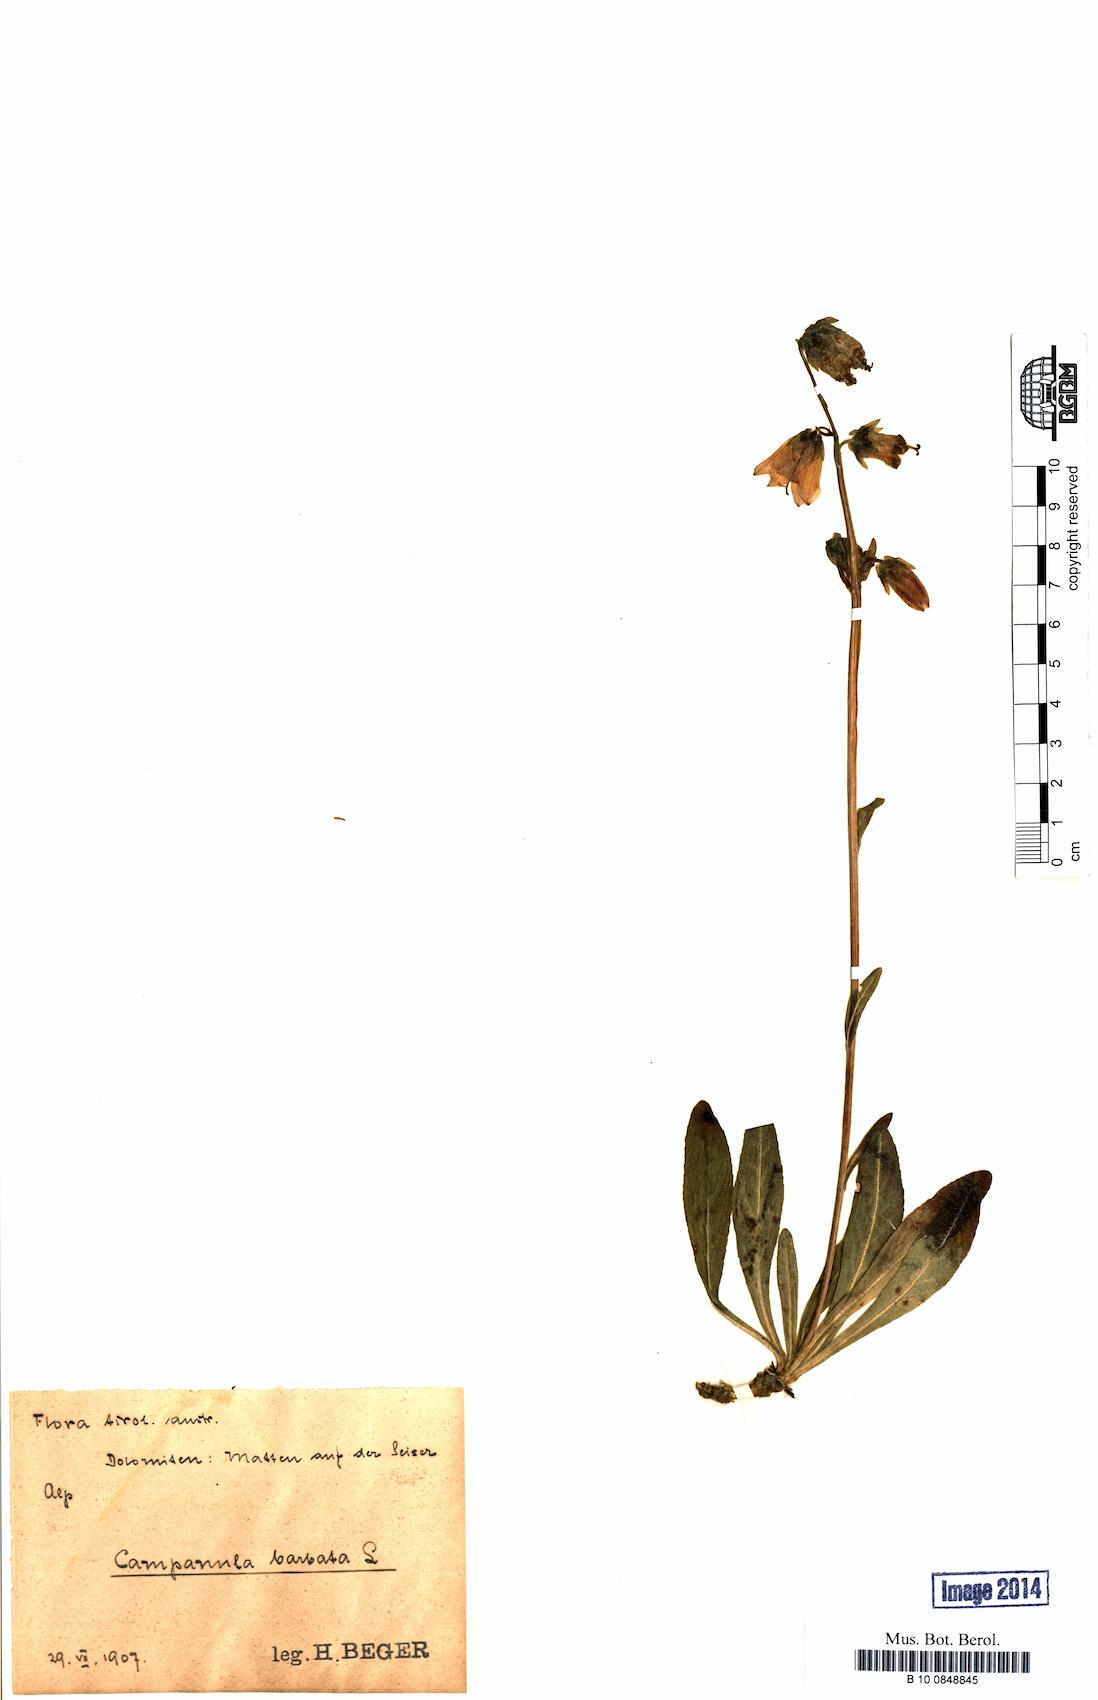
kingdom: Plantae
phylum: Tracheophyta
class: Magnoliopsida
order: Asterales
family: Campanulaceae
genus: Campanula
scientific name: Campanula barbata
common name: Bearded bellflower
